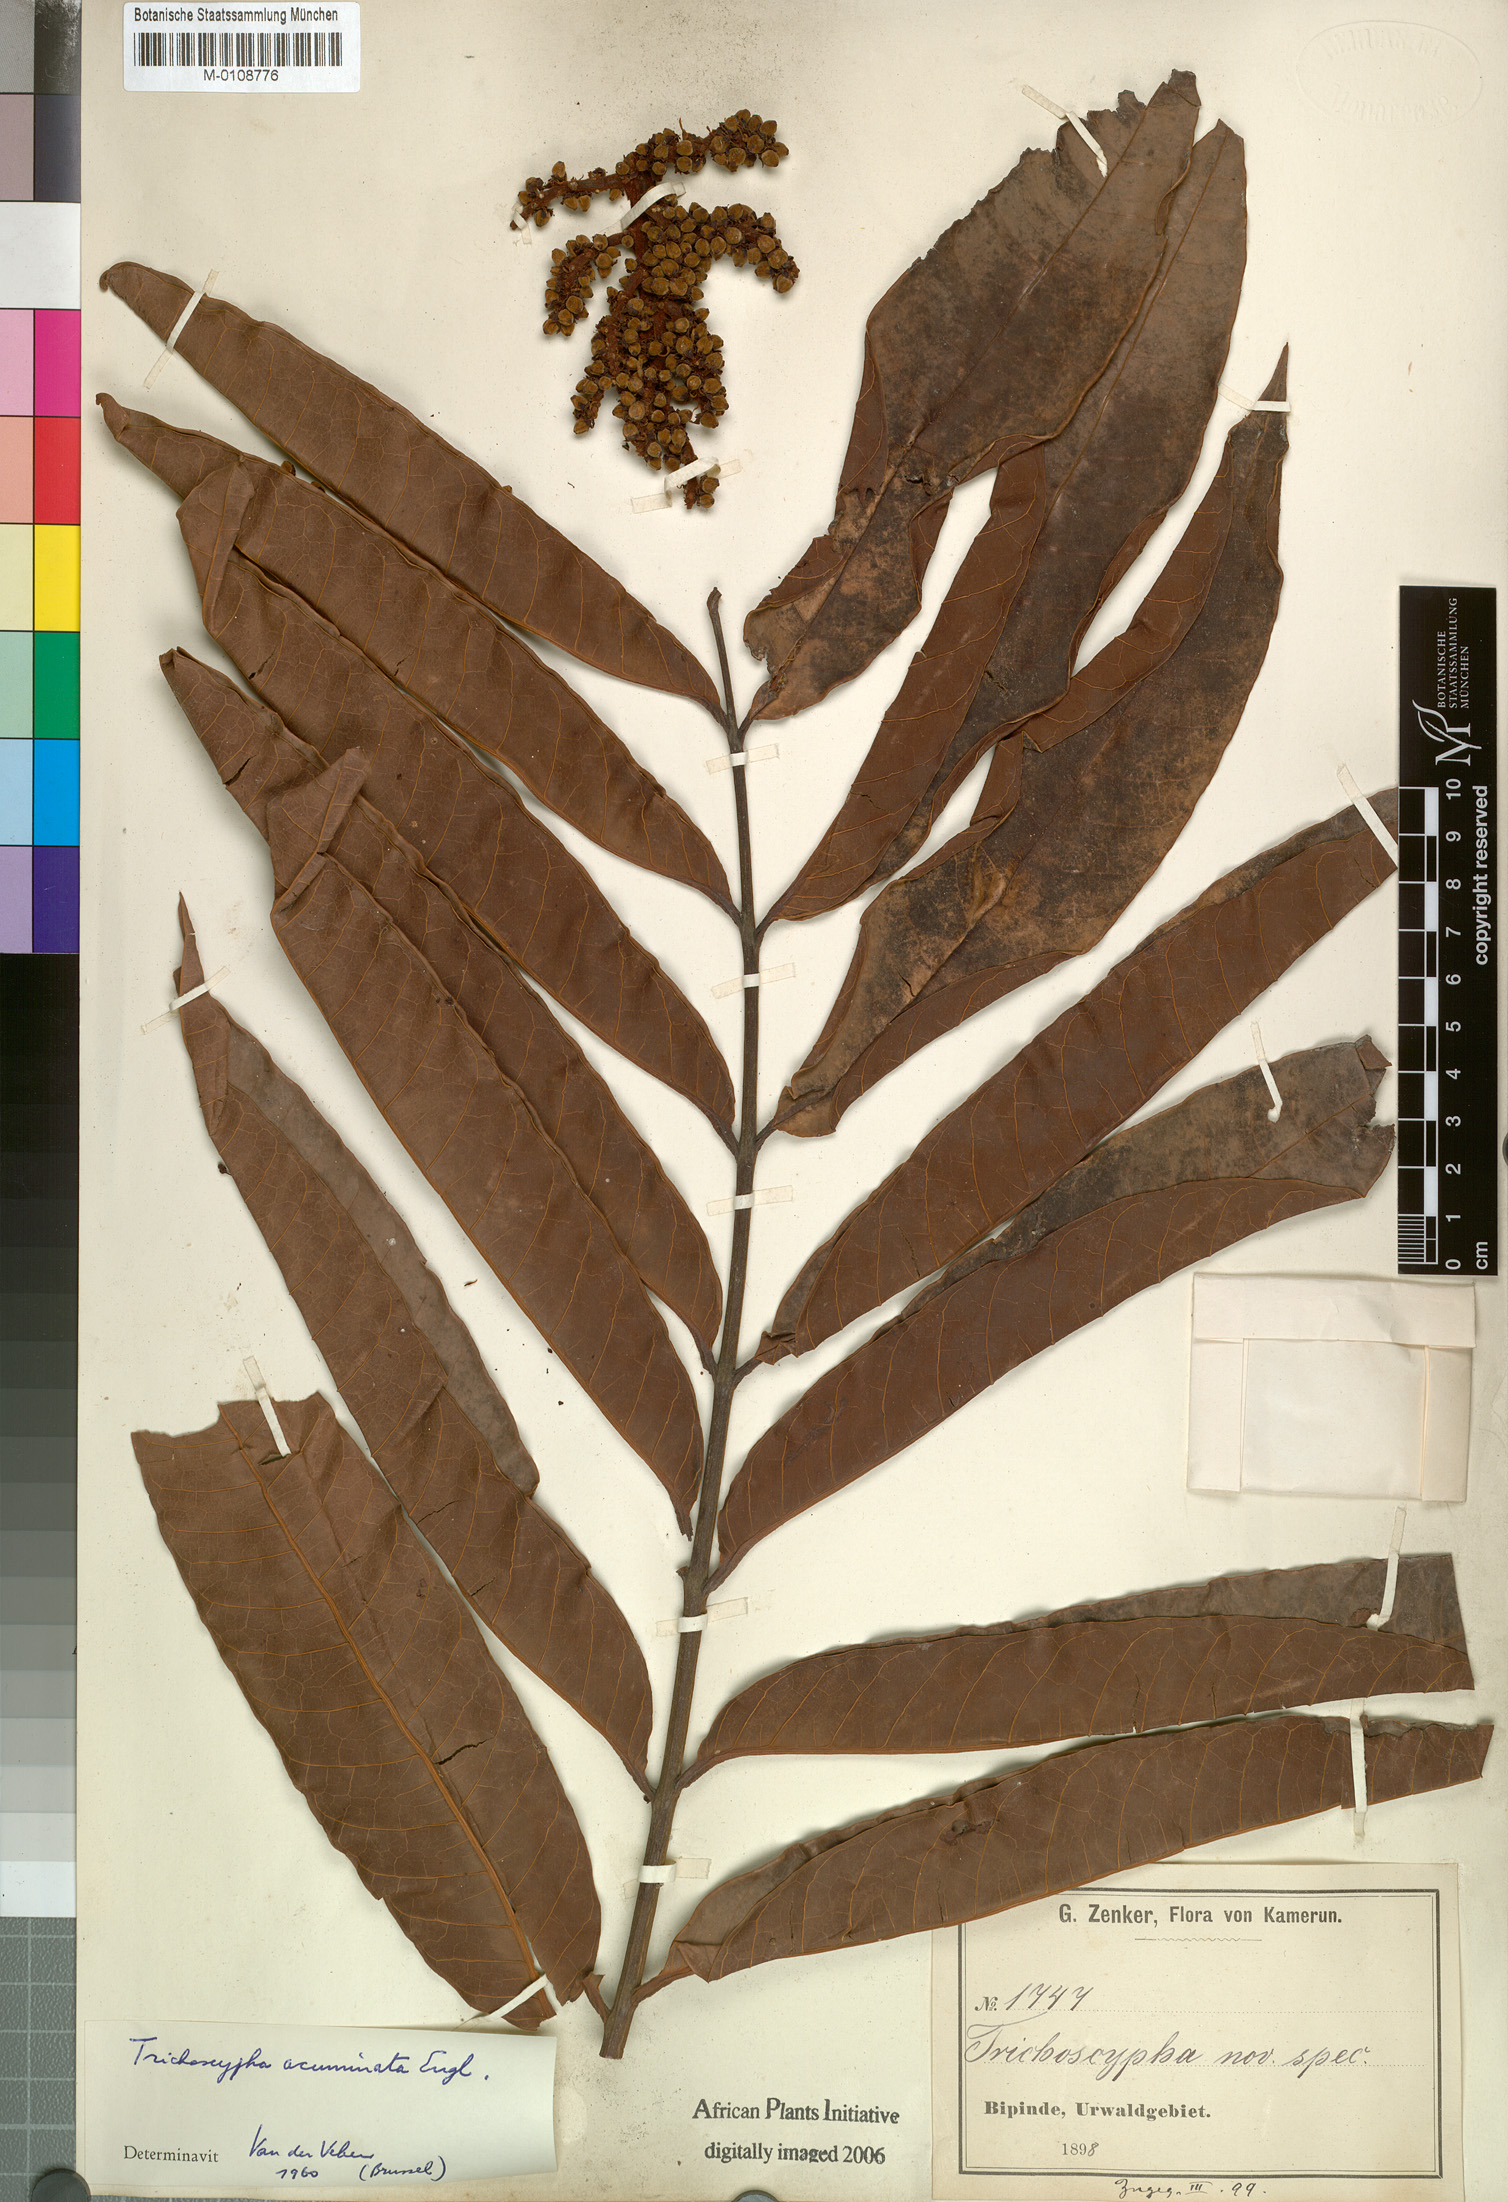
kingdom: Plantae
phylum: Tracheophyta
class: Magnoliopsida
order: Sapindales
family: Anacardiaceae
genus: Trichoscypha
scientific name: Trichoscypha acuminata
